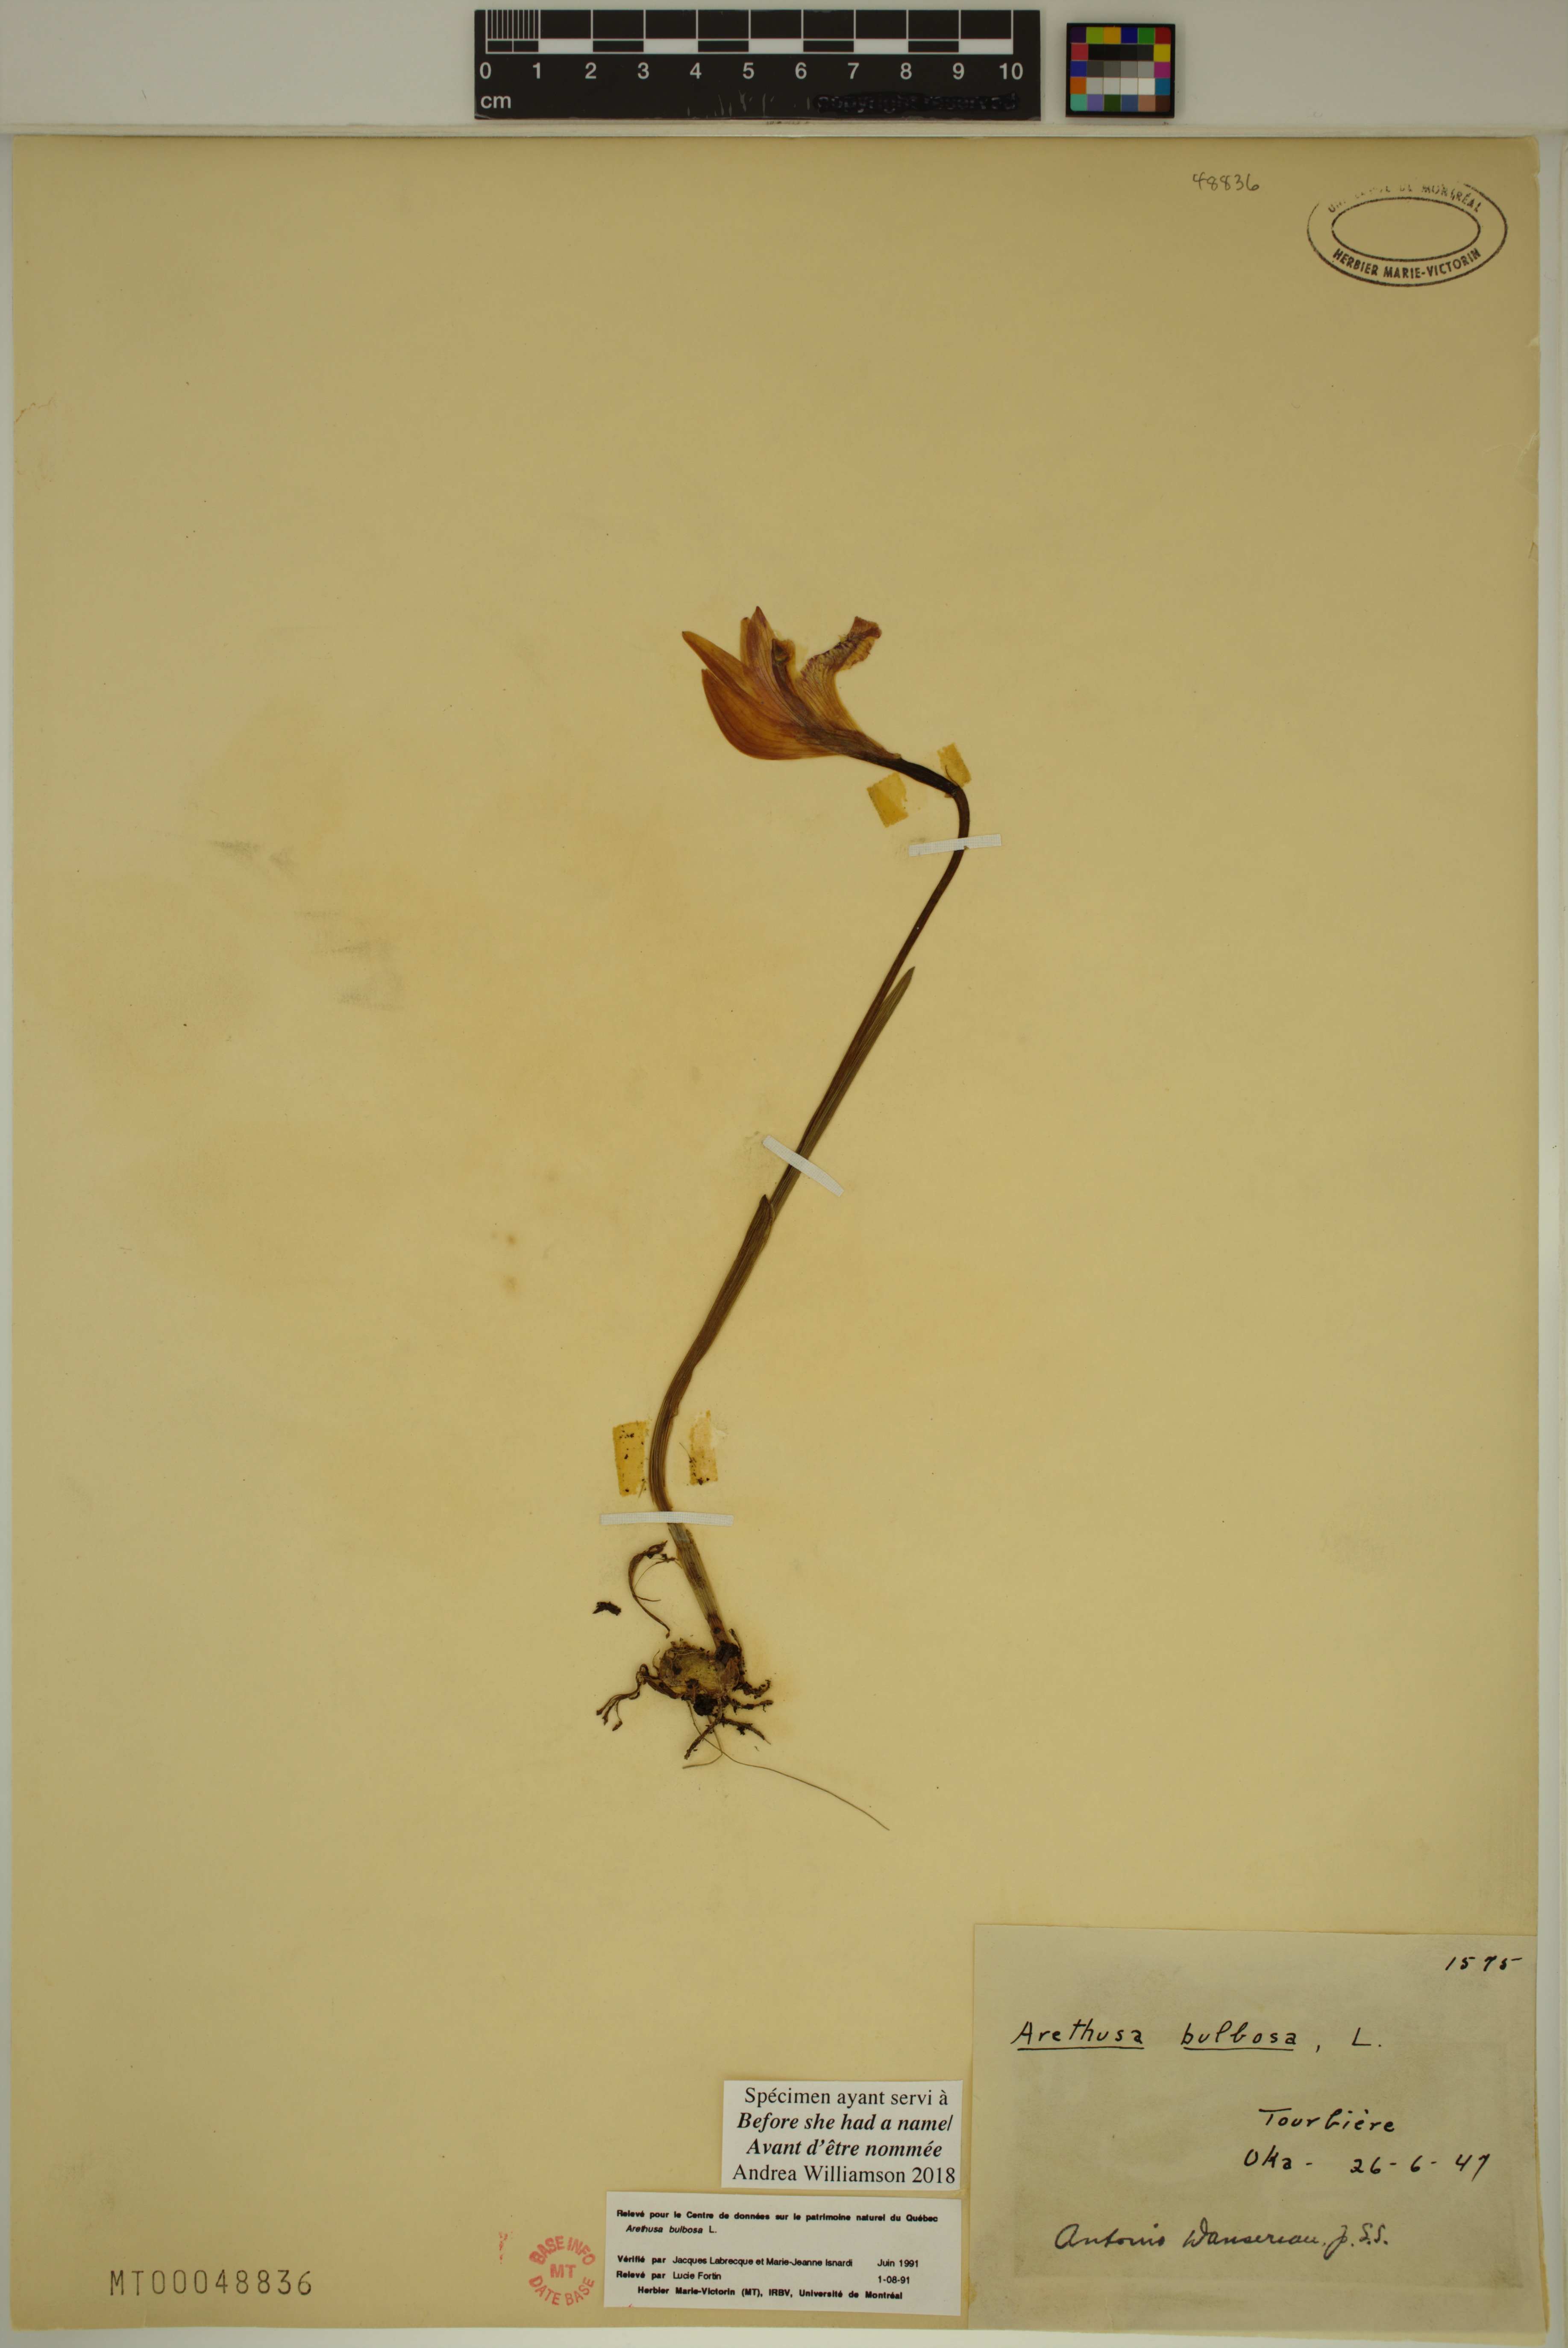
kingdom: Plantae
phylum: Tracheophyta
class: Liliopsida
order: Asparagales
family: Orchidaceae
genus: Arethusa
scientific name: Arethusa bulbosa
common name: Arethusa
